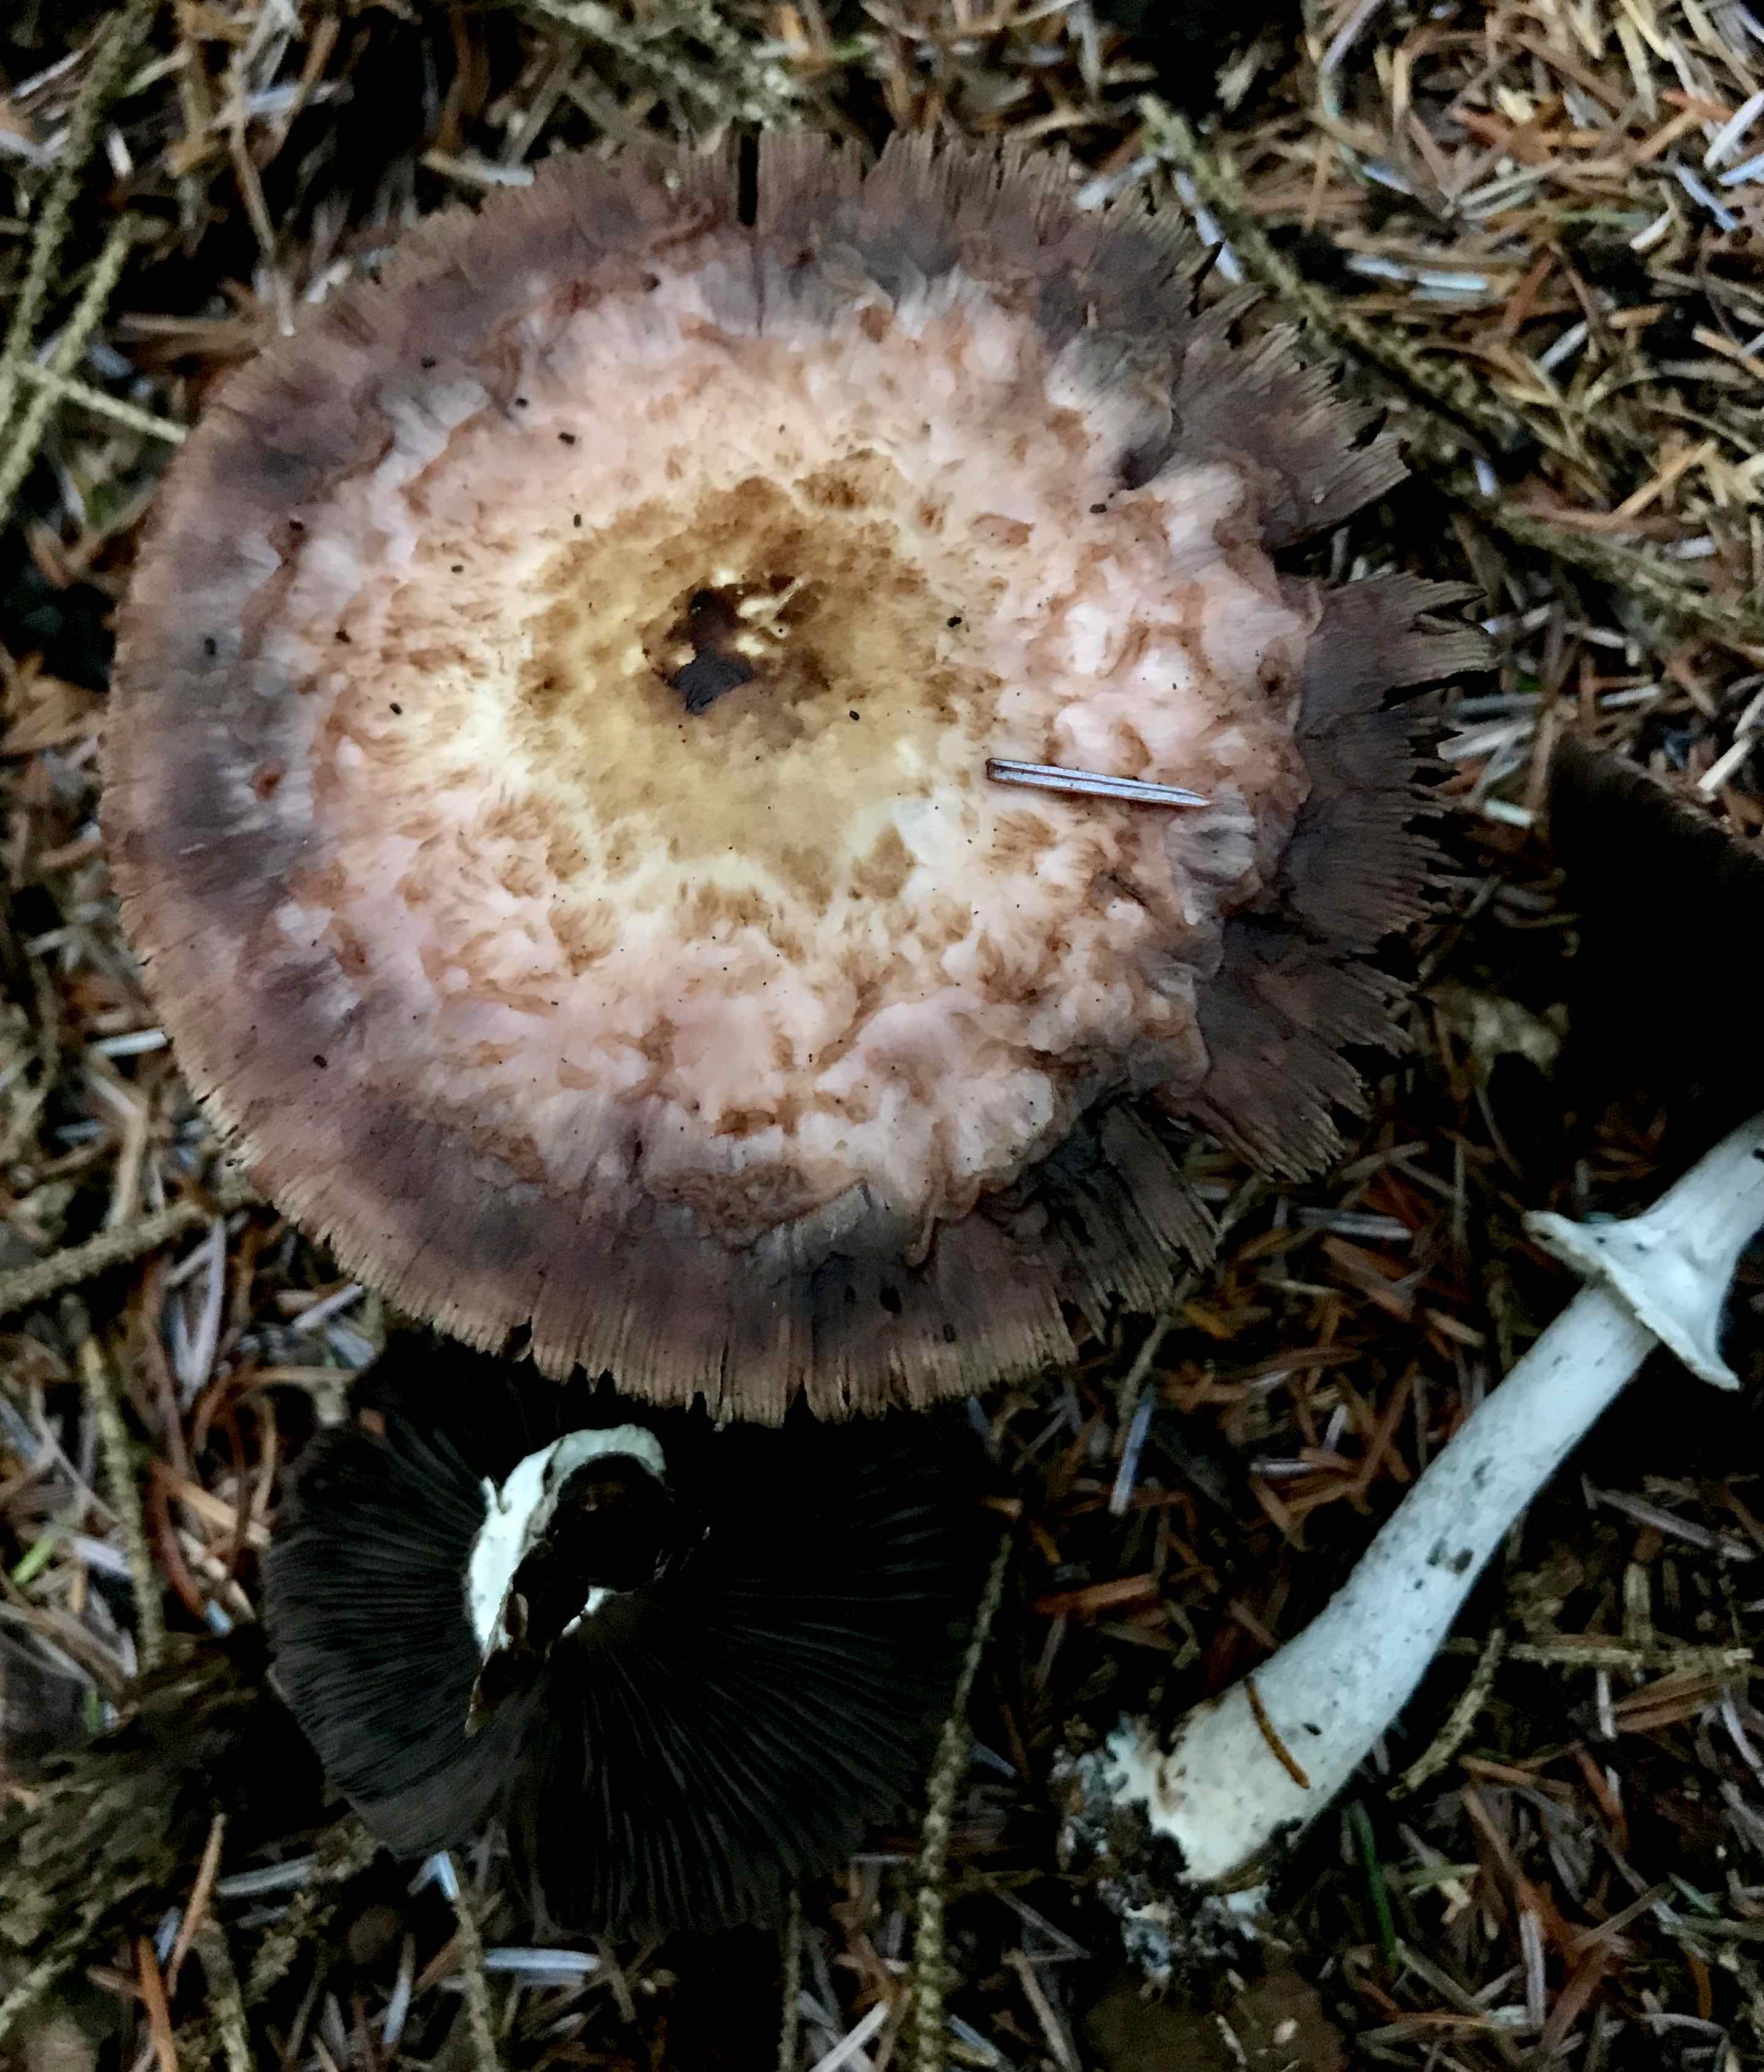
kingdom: Fungi
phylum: Basidiomycota
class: Agaricomycetes
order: Agaricales
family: Agaricaceae
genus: Agaricus
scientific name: Agaricus impudicus
